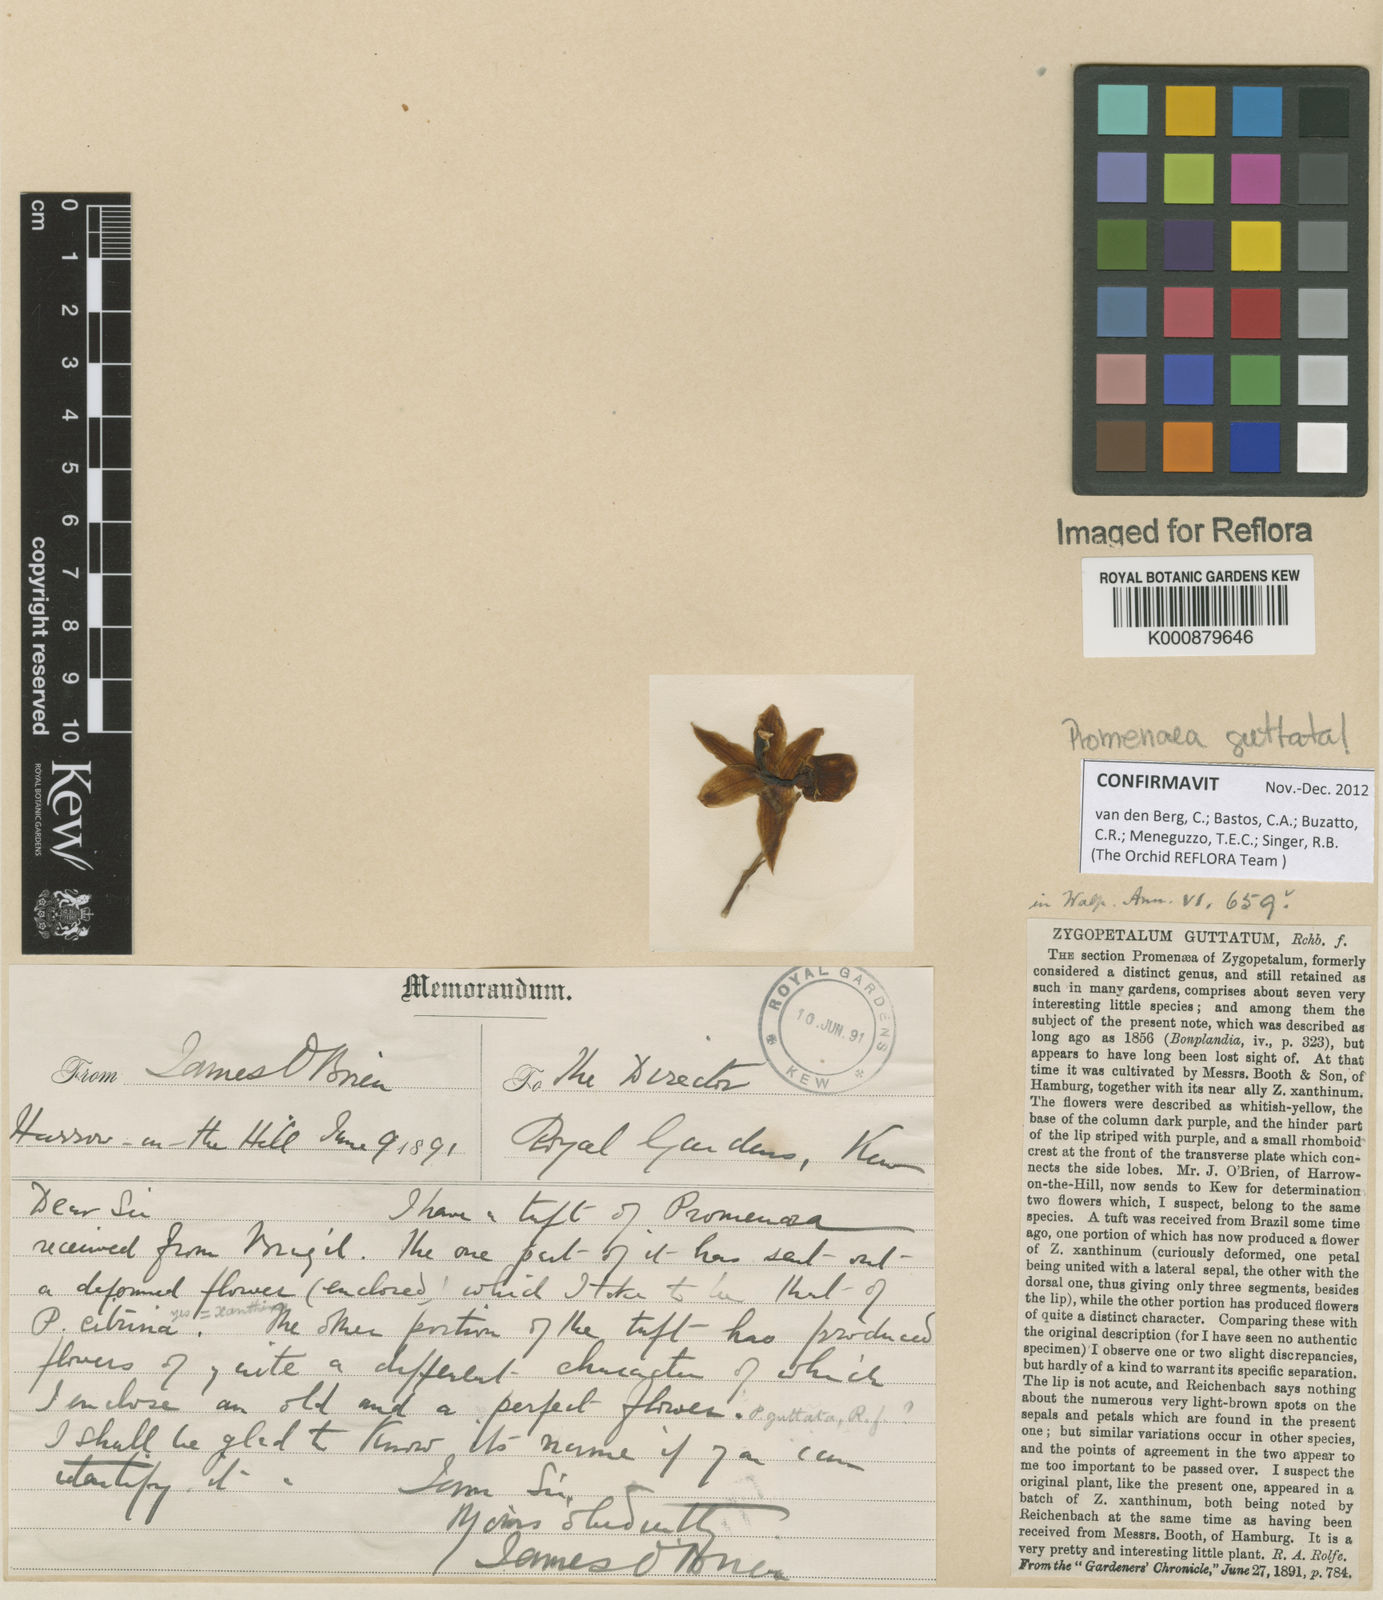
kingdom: Plantae
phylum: Tracheophyta
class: Liliopsida
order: Asparagales
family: Orchidaceae
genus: Promenaea
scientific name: Promenaea guttata
